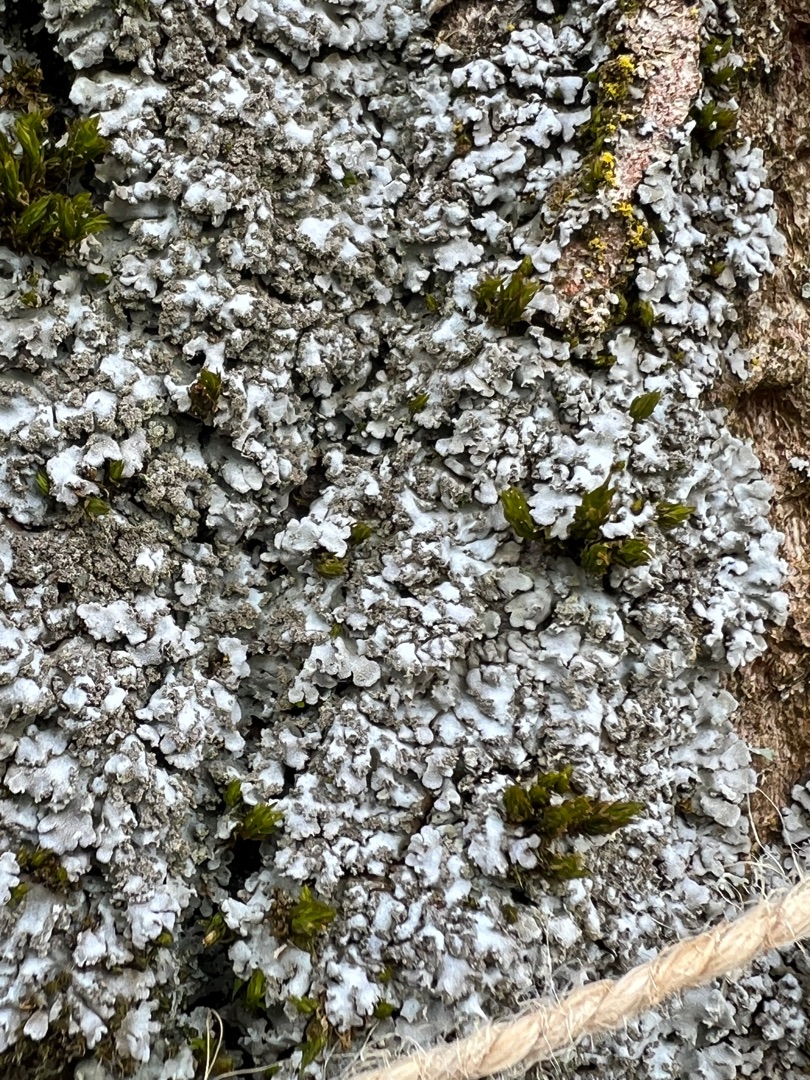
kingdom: Fungi
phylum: Ascomycota
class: Lecanoromycetes
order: Caliciales
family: Physciaceae
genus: Physconia
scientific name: Physconia
